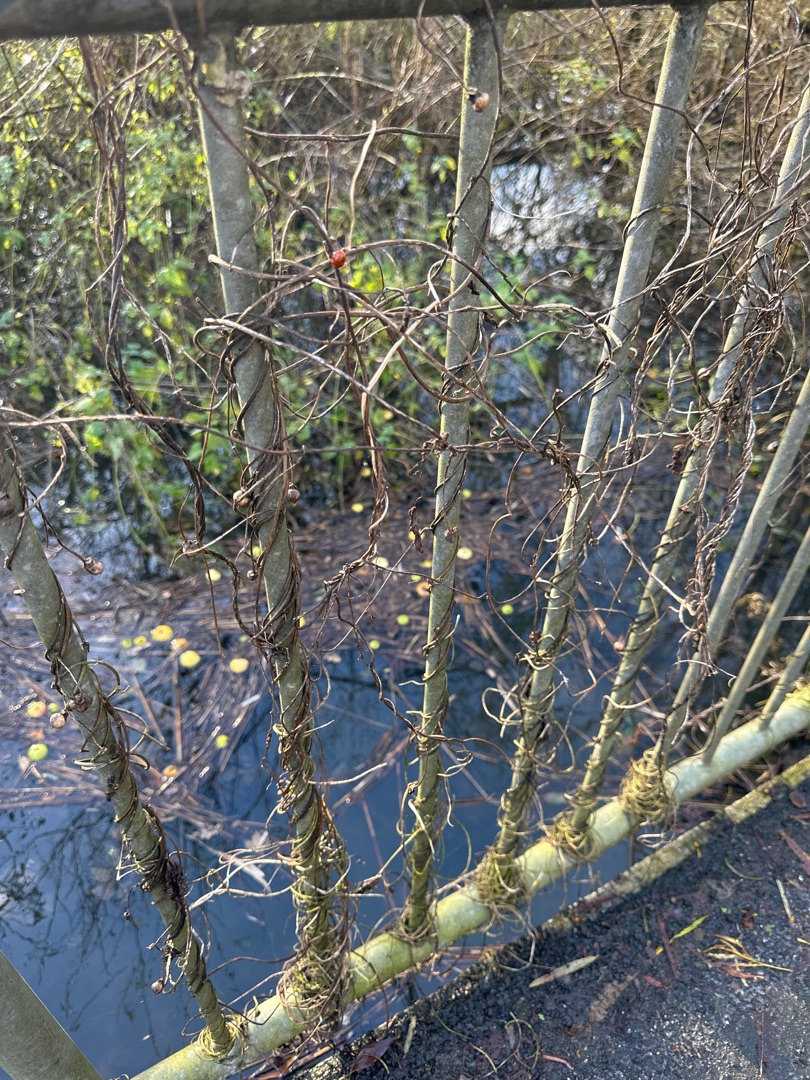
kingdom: Plantae
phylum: Tracheophyta
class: Magnoliopsida
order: Solanales
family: Convolvulaceae
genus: Calystegia
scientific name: Calystegia sepium
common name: Gærde-snerle
